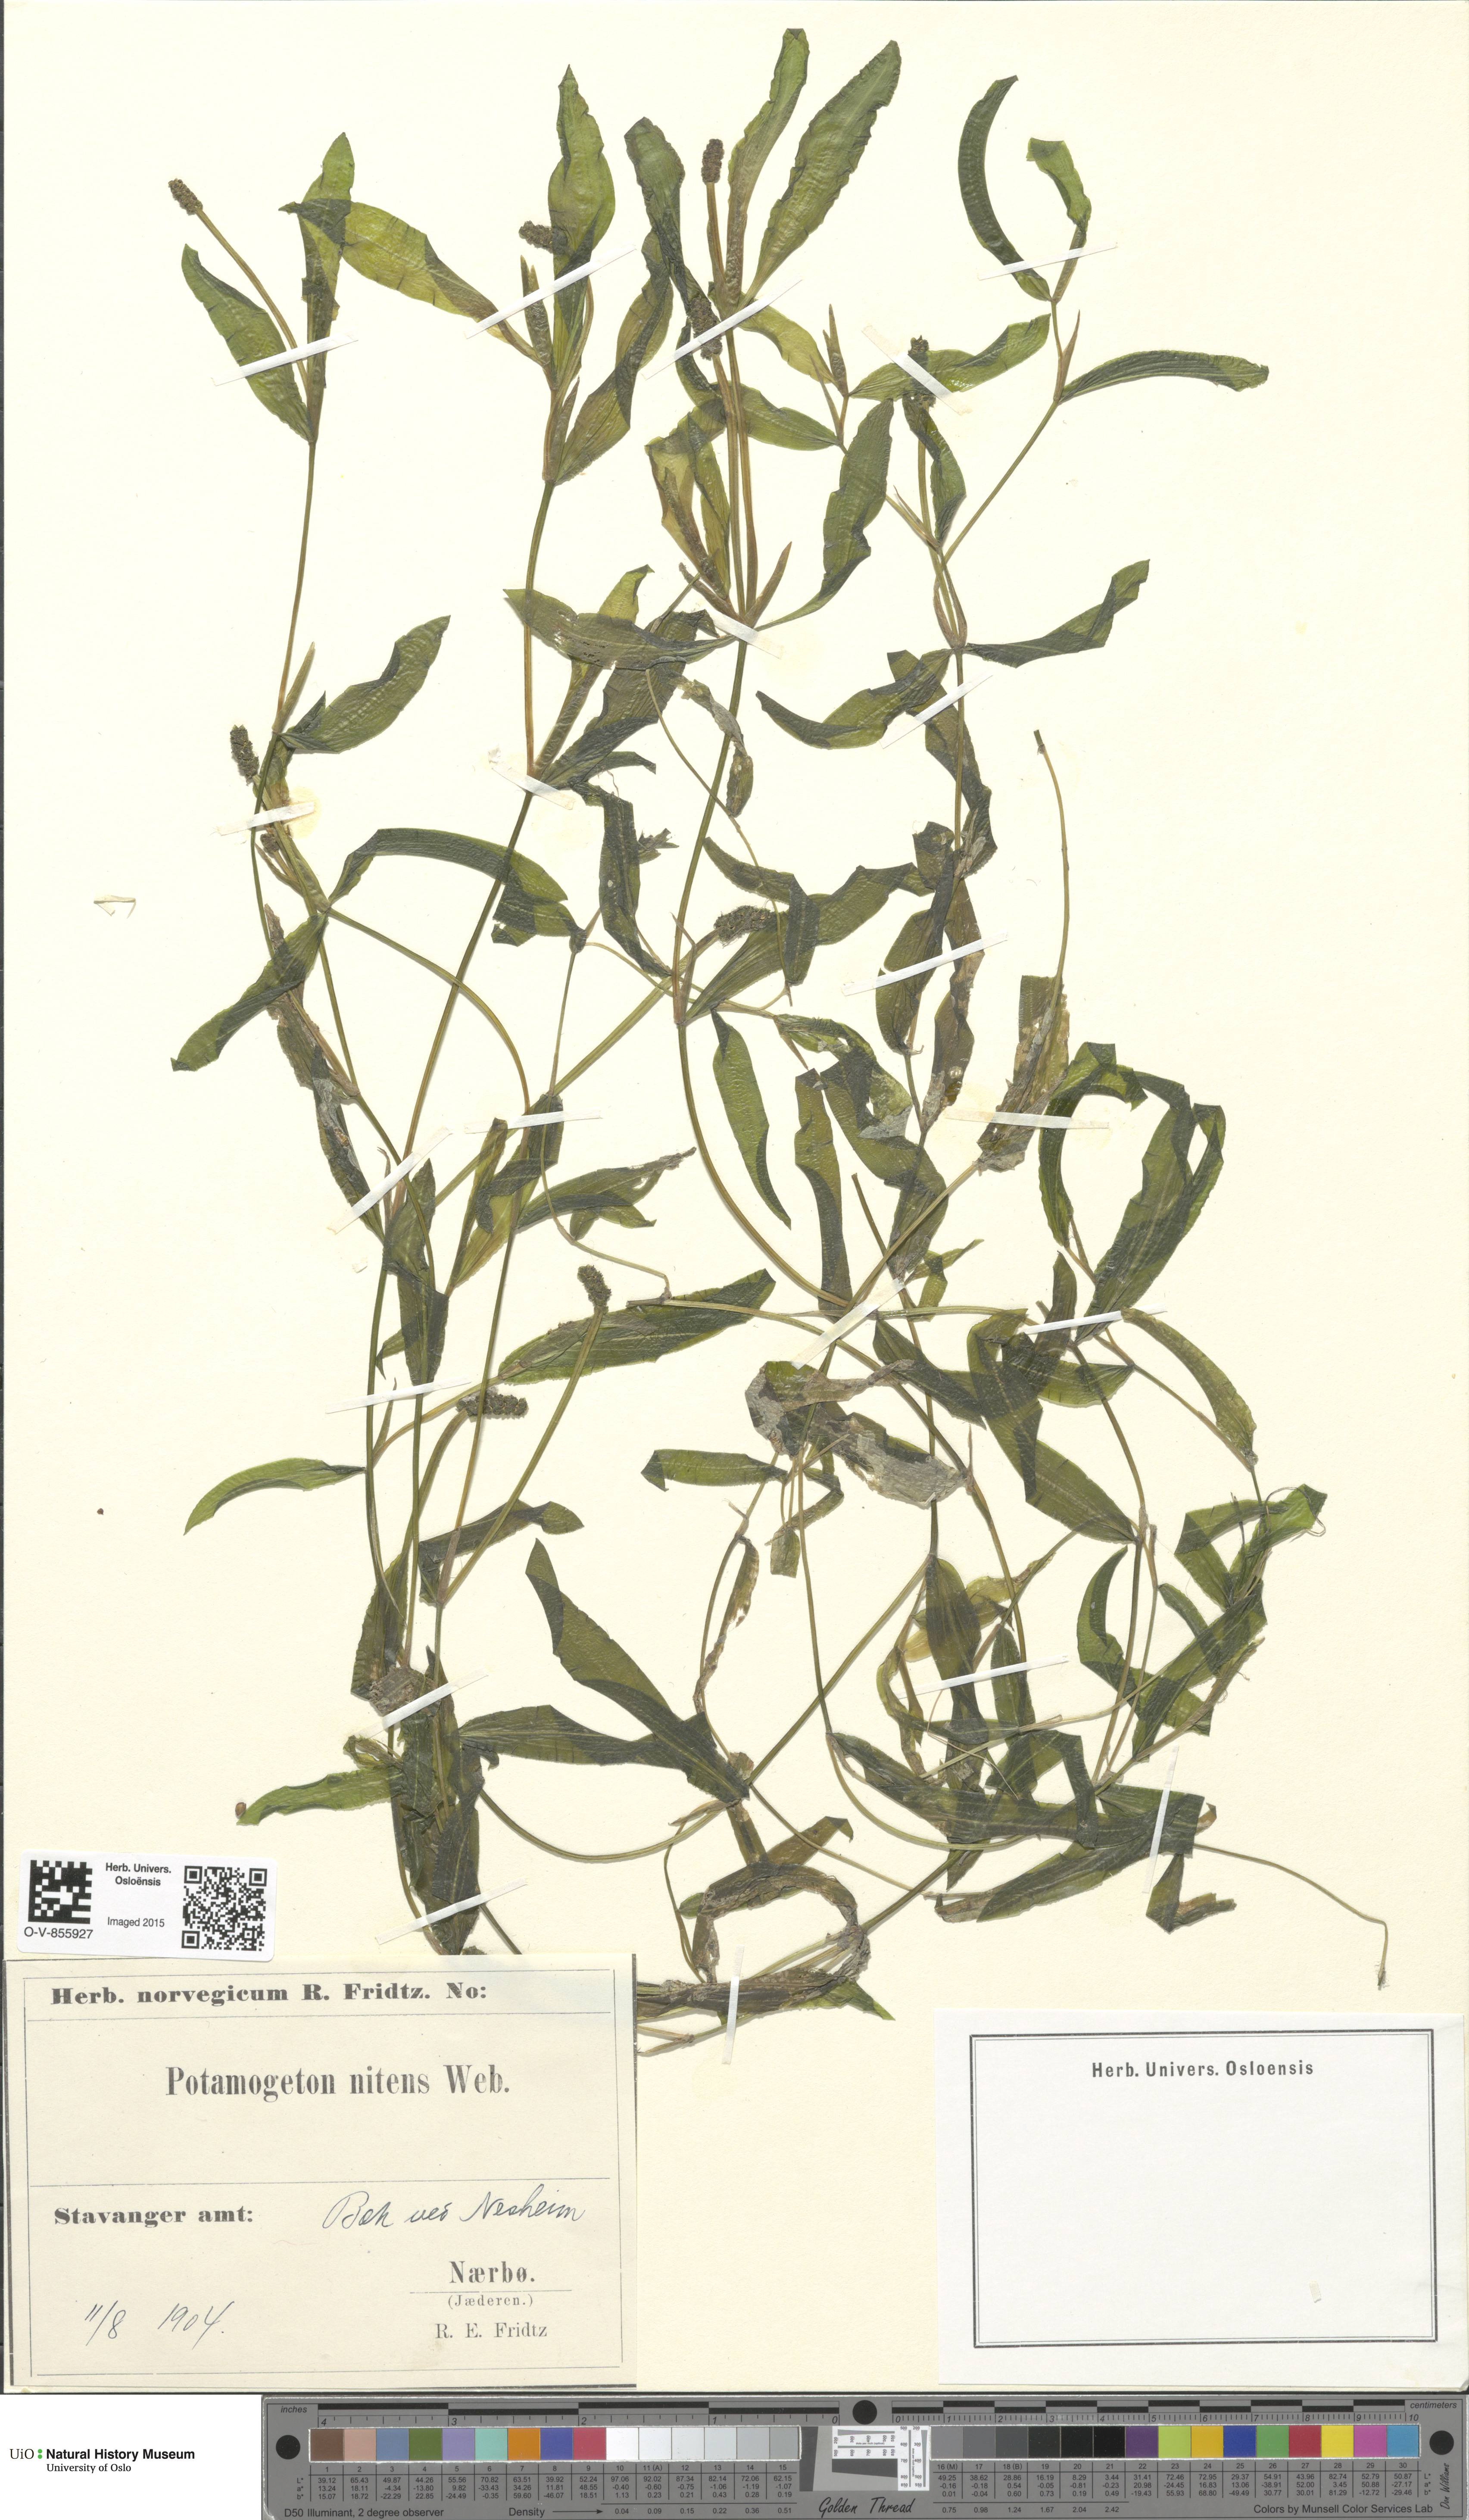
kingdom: Plantae
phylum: Tracheophyta
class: Liliopsida
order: Alismatales
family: Potamogetonaceae
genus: Potamogeton
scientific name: Potamogeton nitens
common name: Pondweed
